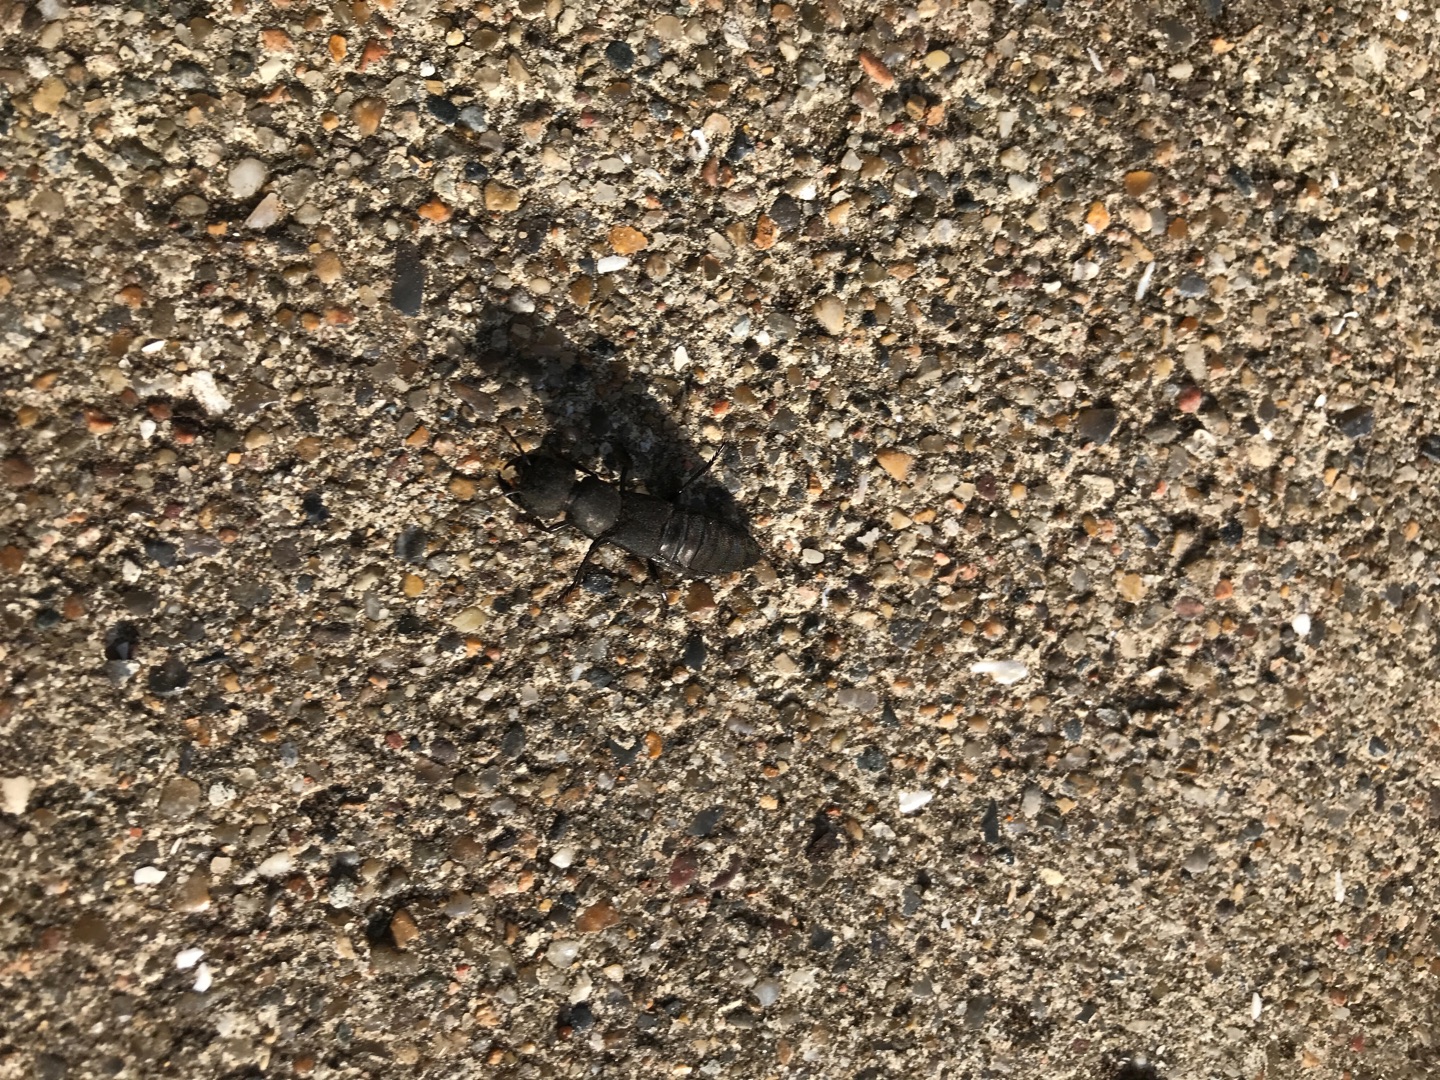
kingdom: Animalia
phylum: Arthropoda
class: Insecta
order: Coleoptera
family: Staphylinidae
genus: Ocypus
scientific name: Ocypus olens
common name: Stor rovbille
